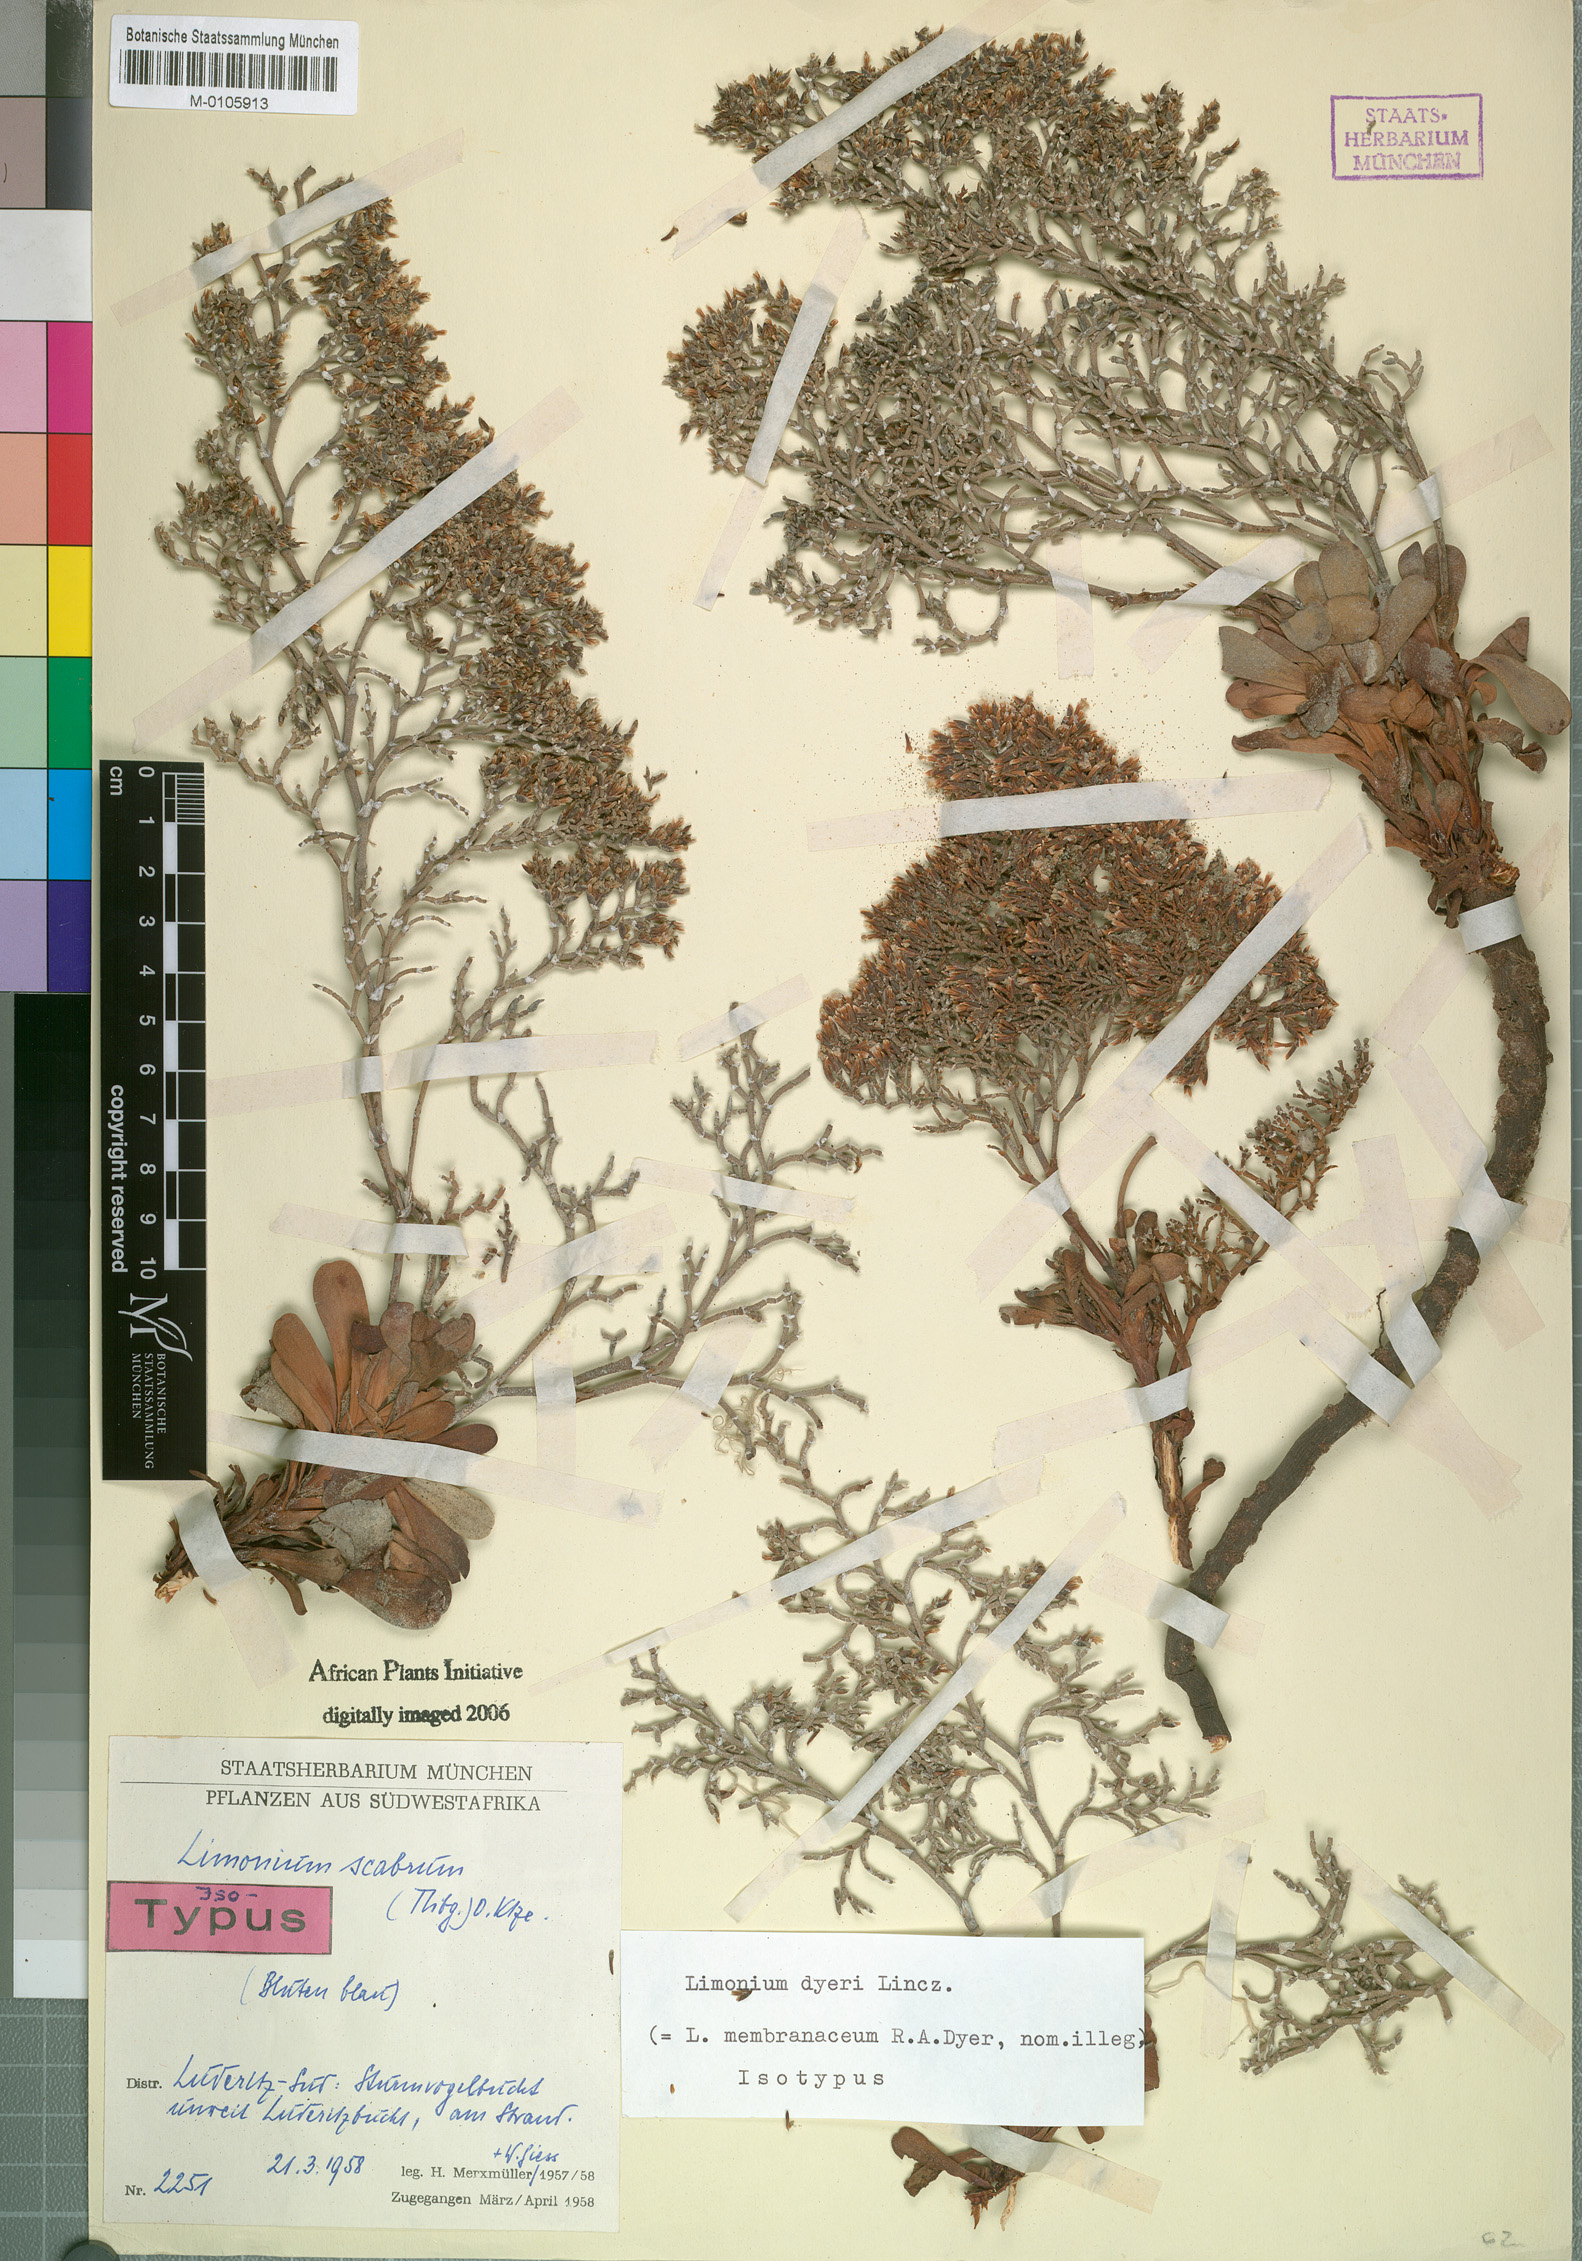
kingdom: Plantae
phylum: Tracheophyta
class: Magnoliopsida
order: Caryophyllales
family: Plumbaginaceae
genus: Limonium
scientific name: Limonium dyeri
